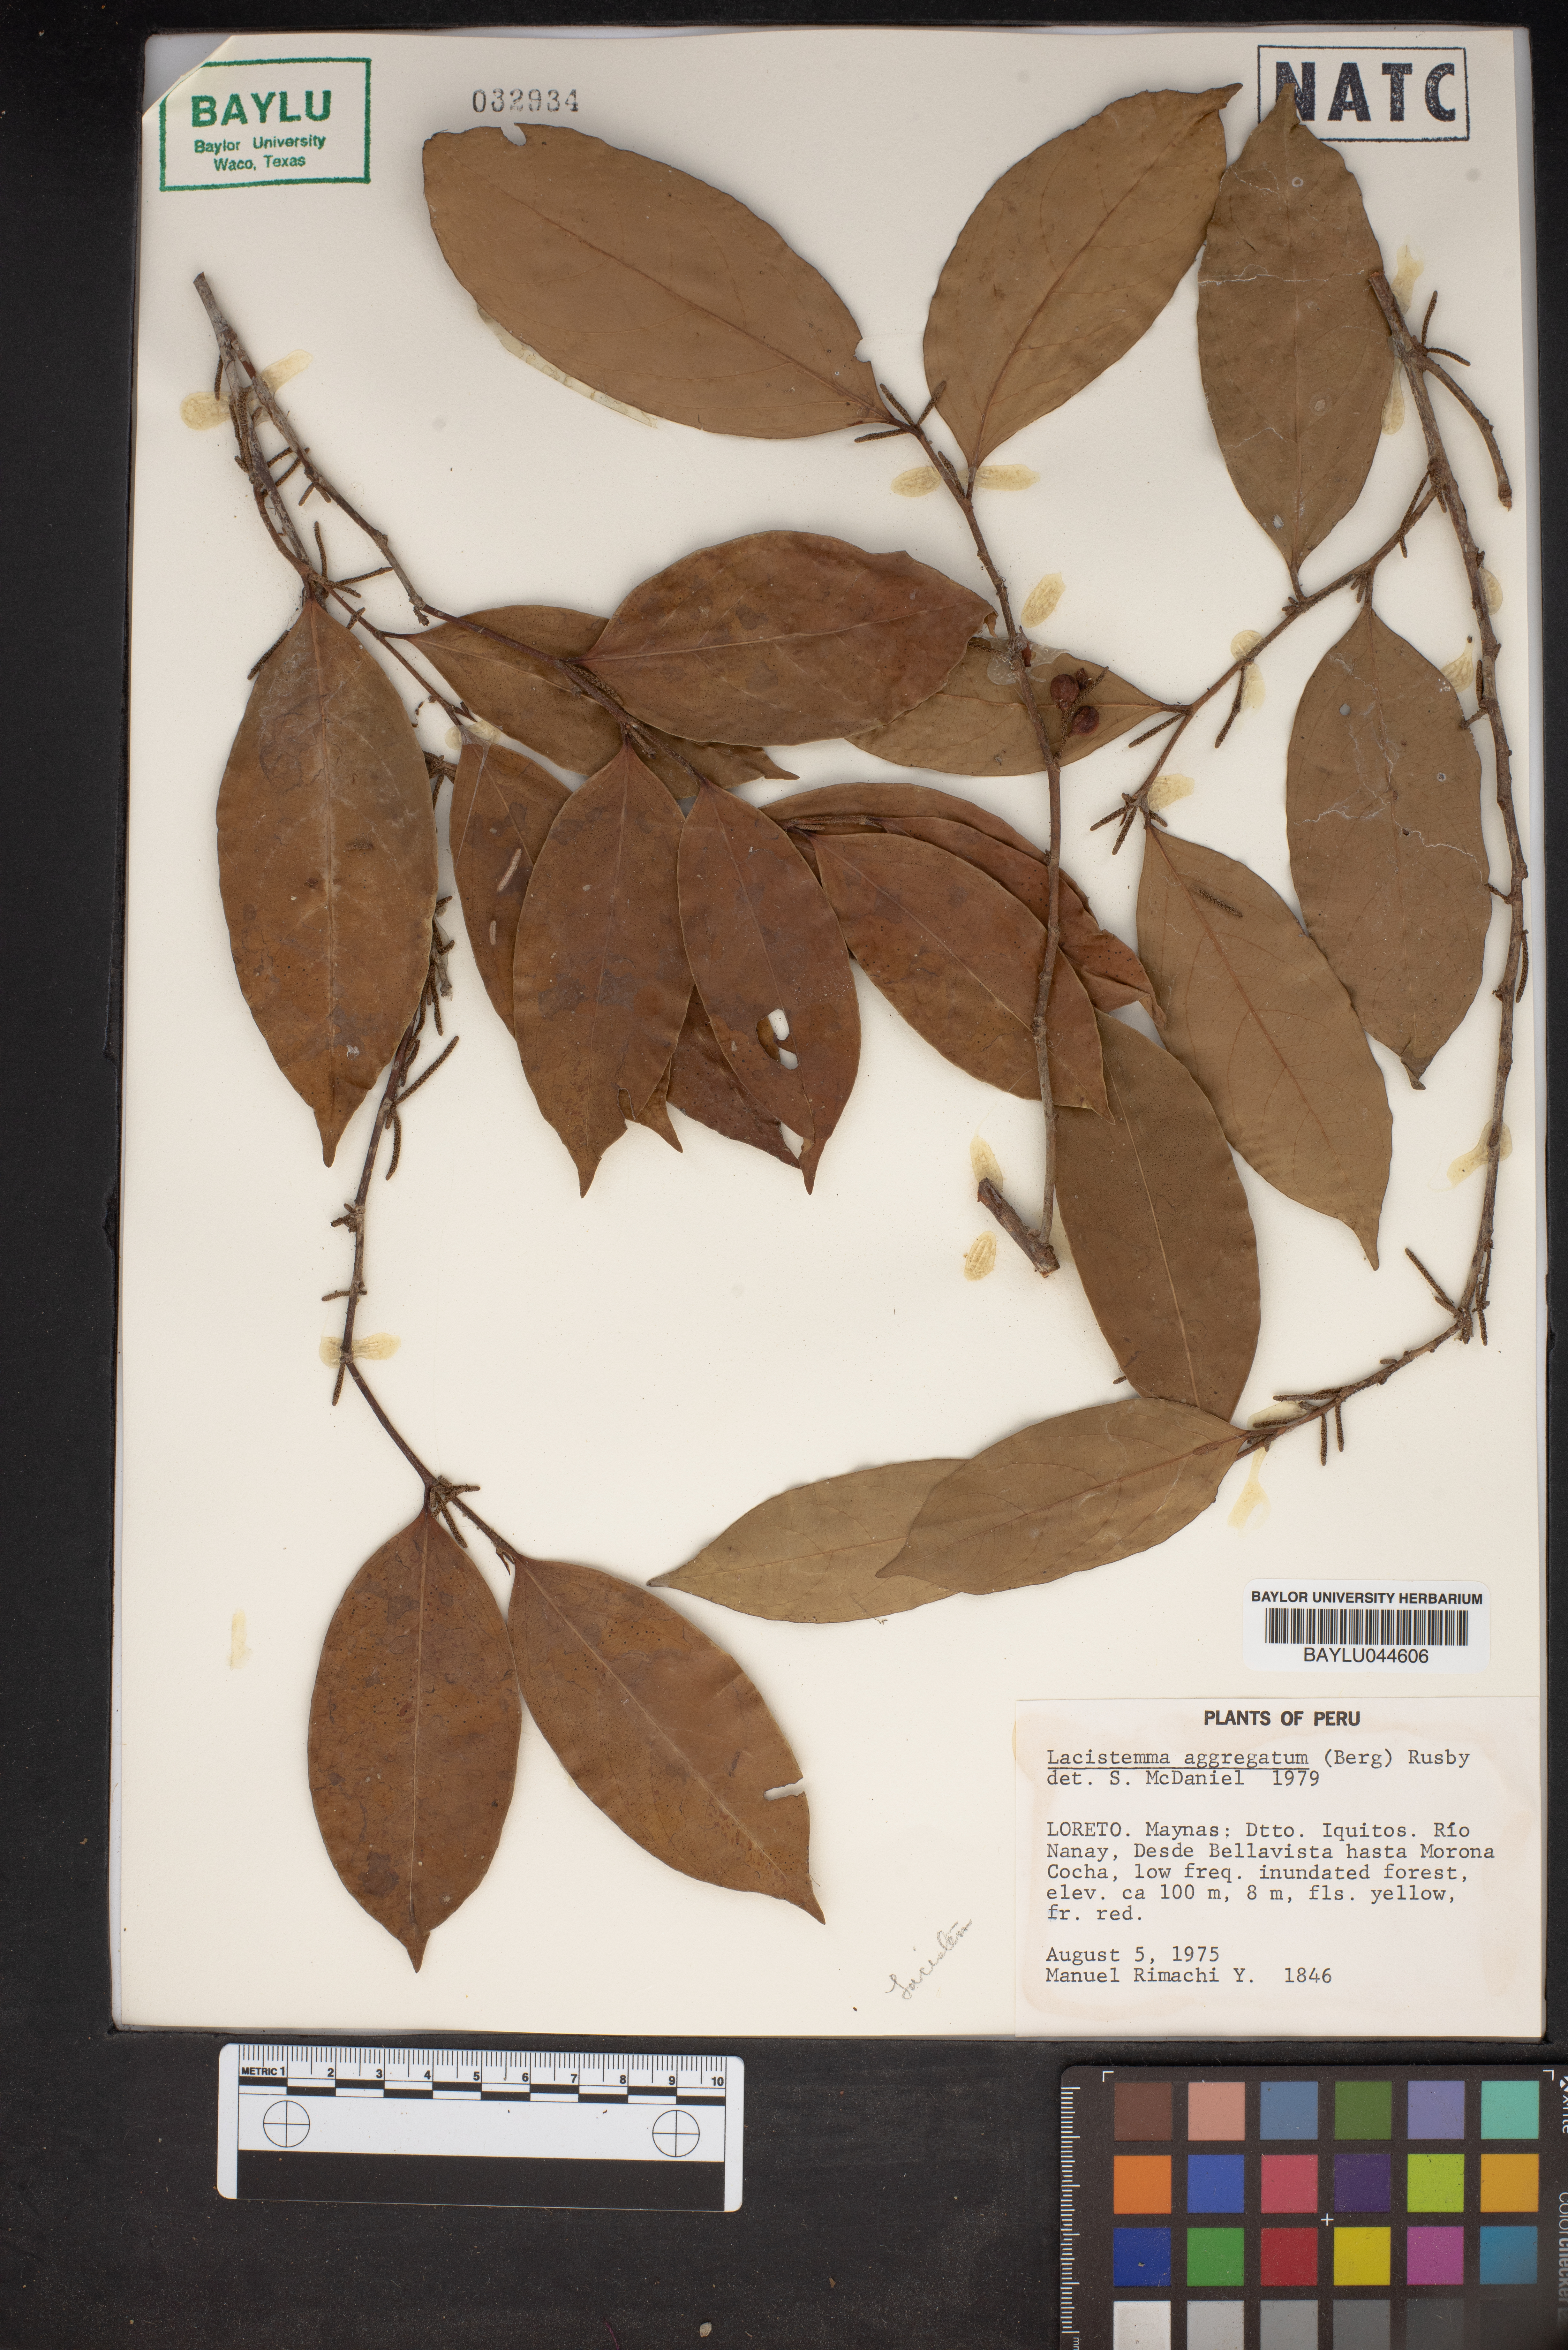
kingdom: Plantae
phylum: Tracheophyta
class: Magnoliopsida
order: Malpighiales
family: Lacistemataceae
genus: Lacistema
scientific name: Lacistema aggregatum
